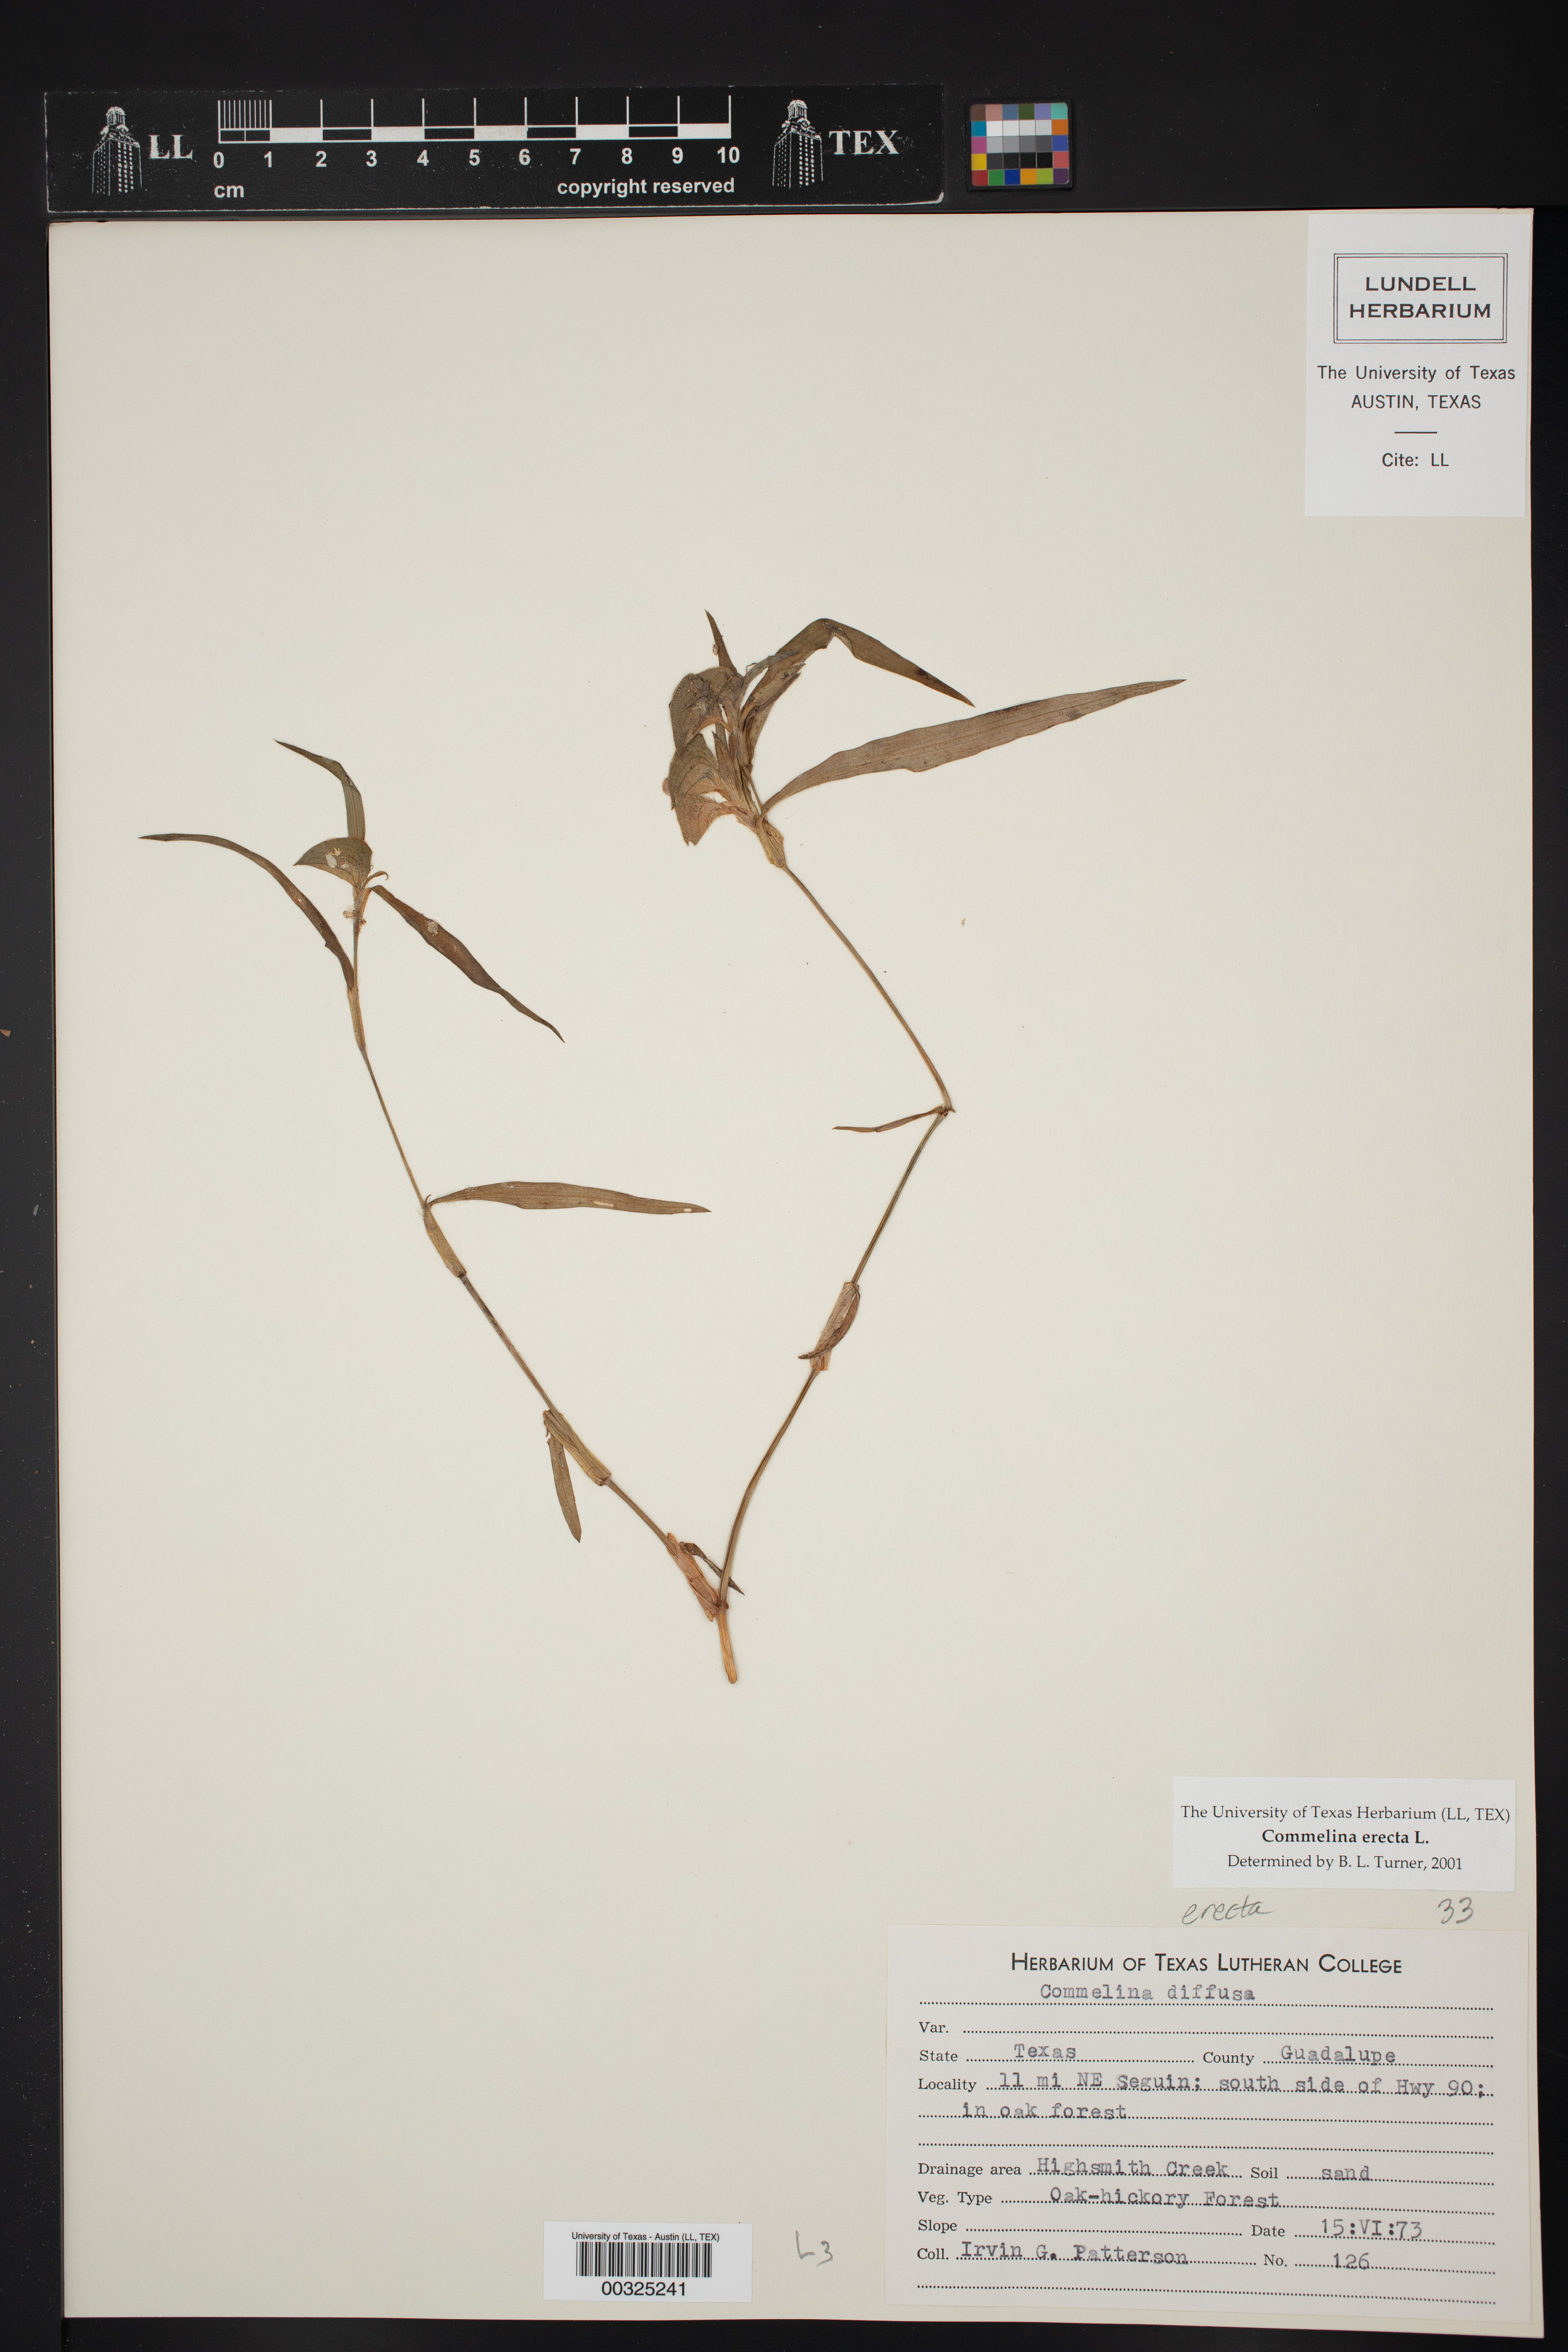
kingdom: Plantae
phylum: Tracheophyta
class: Liliopsida
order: Commelinales
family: Commelinaceae
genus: Commelina
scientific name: Commelina erecta
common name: Blousel blommetjie
